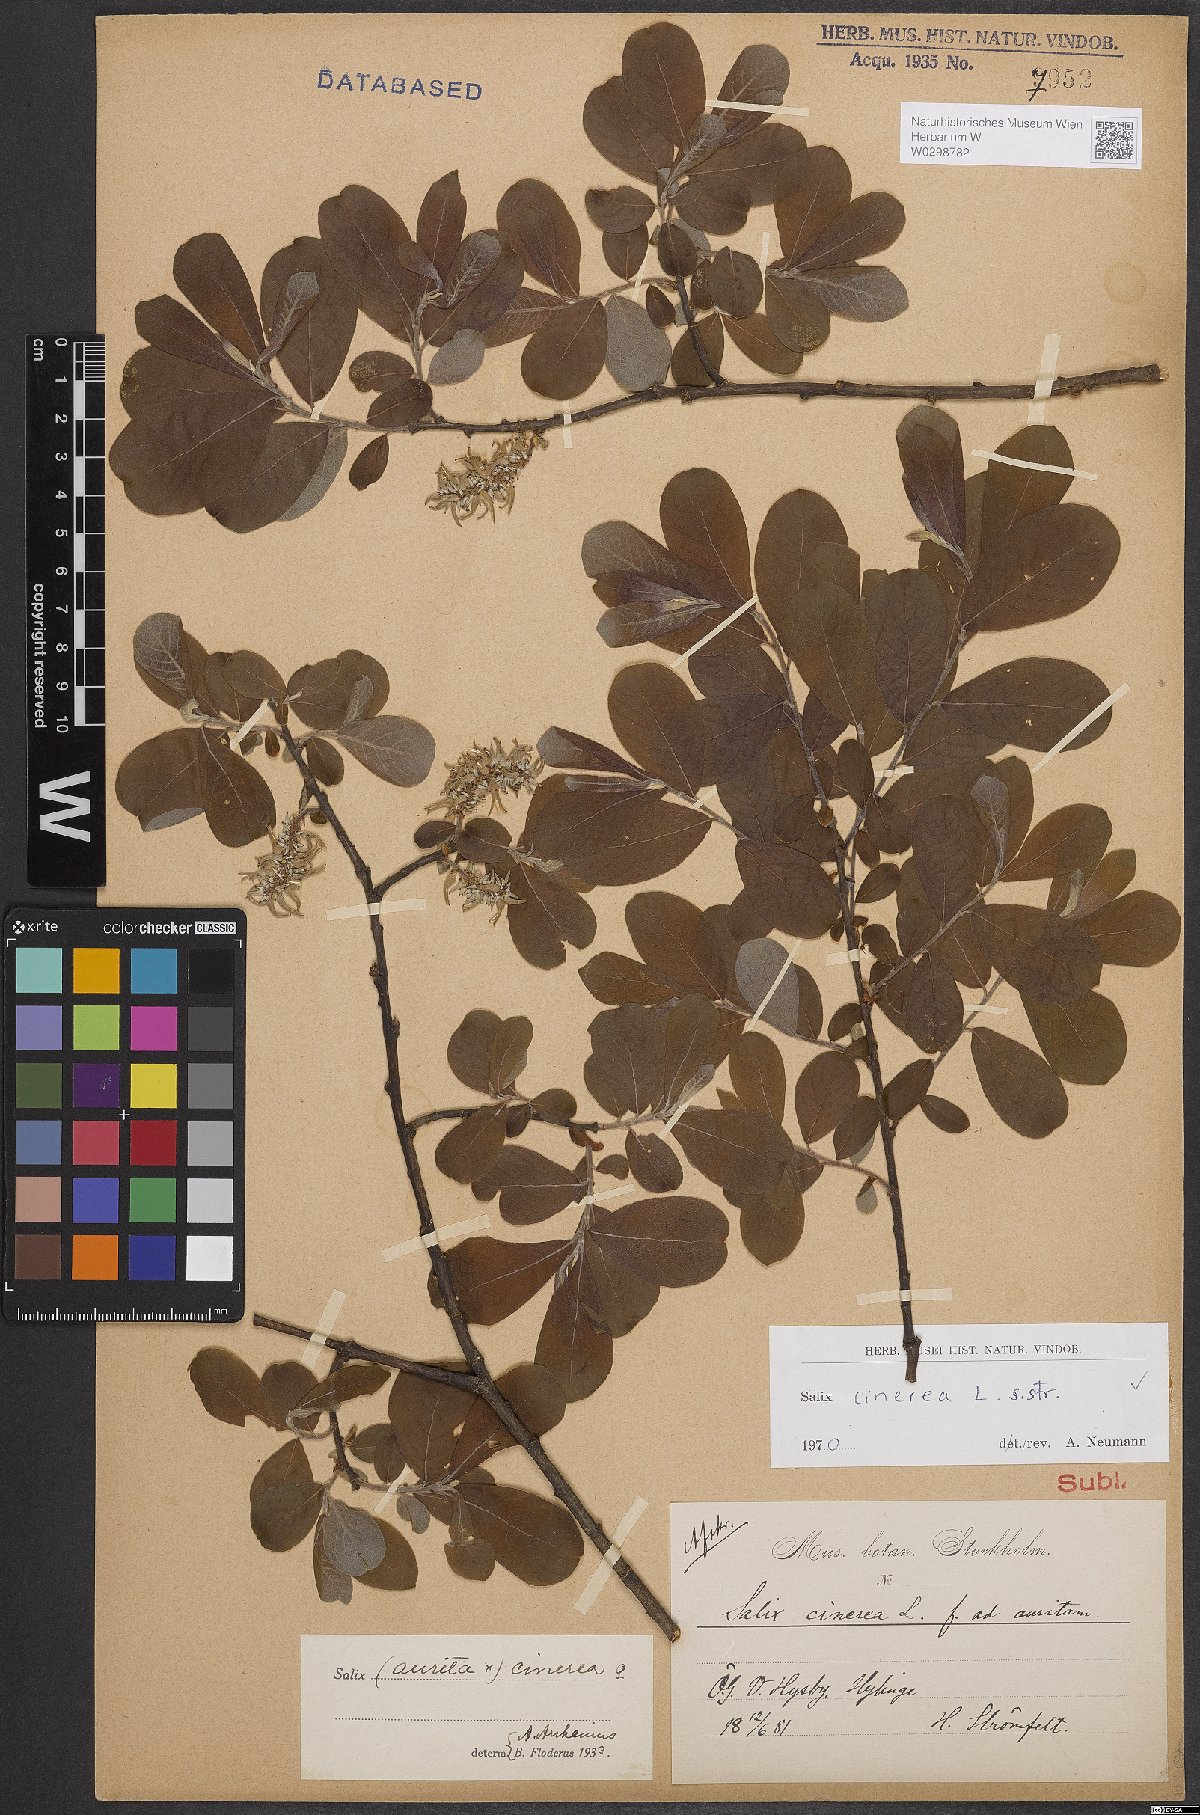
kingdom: Plantae
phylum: Tracheophyta
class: Magnoliopsida
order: Malpighiales
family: Salicaceae
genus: Salix
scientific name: Salix cinerea
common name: Common sallow
